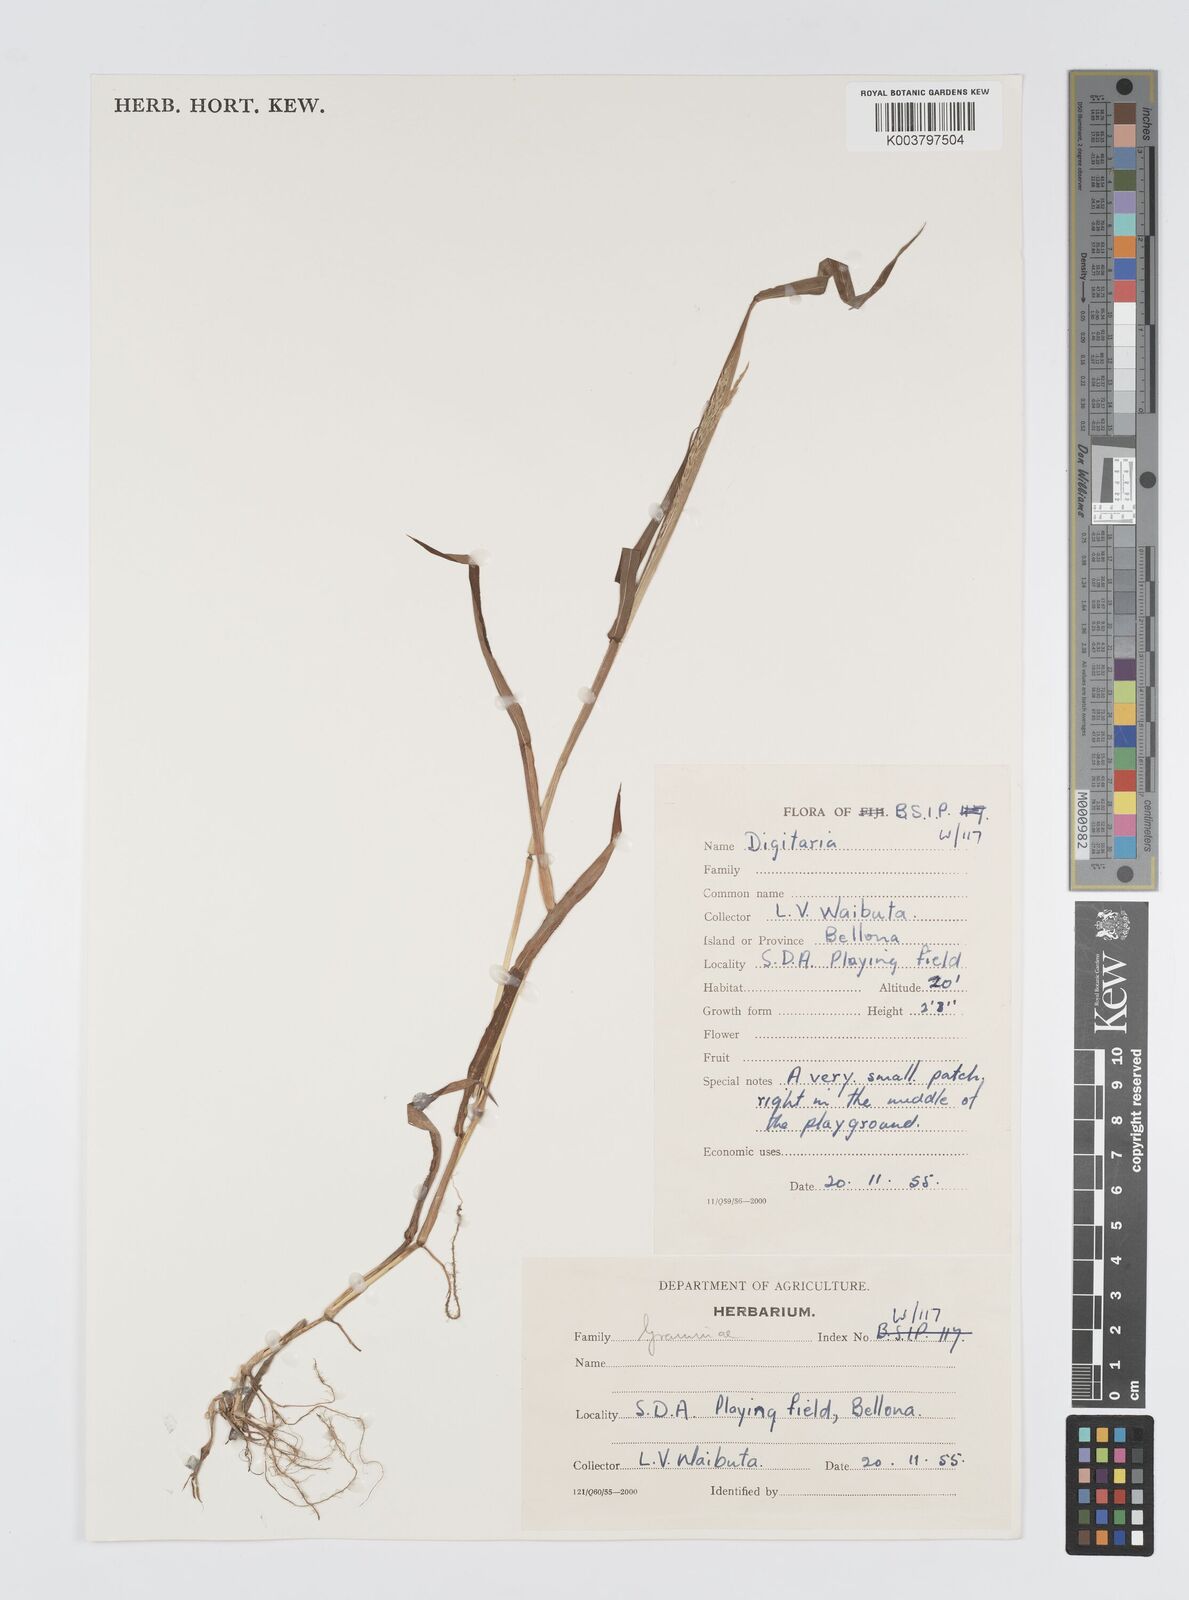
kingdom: Plantae
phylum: Tracheophyta
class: Liliopsida
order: Poales
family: Poaceae
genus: Digitaria
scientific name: Digitaria setigera
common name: East indian crabgrass
